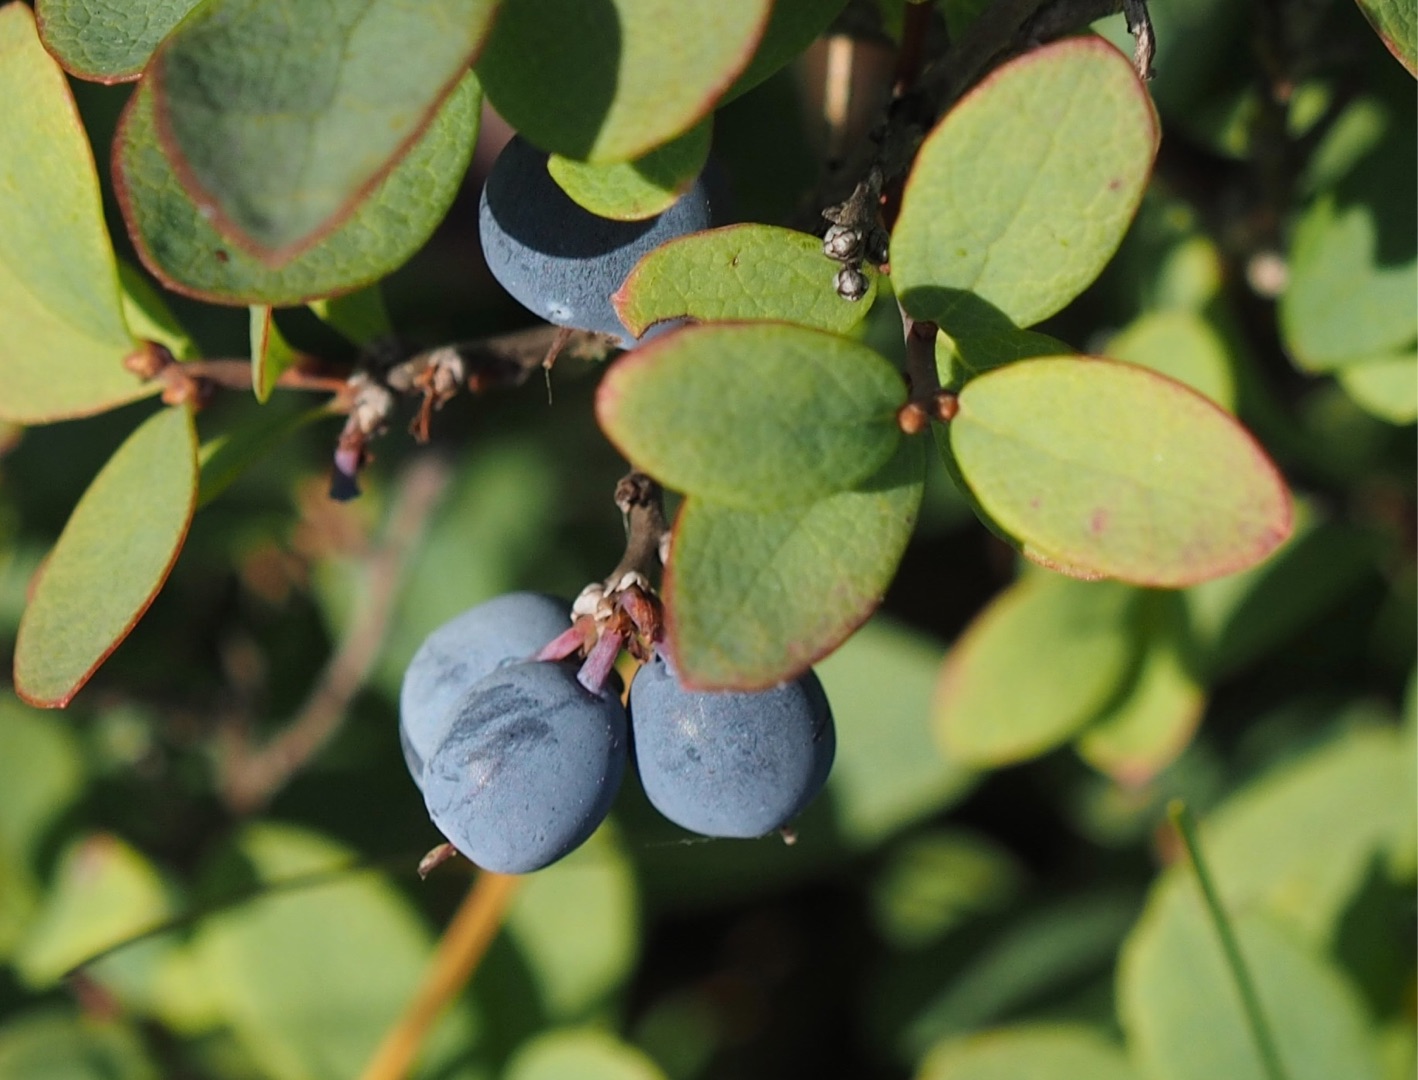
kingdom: Plantae
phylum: Tracheophyta
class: Magnoliopsida
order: Ericales
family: Ericaceae
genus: Vaccinium
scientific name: Vaccinium uliginosum
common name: Mose-bølle
